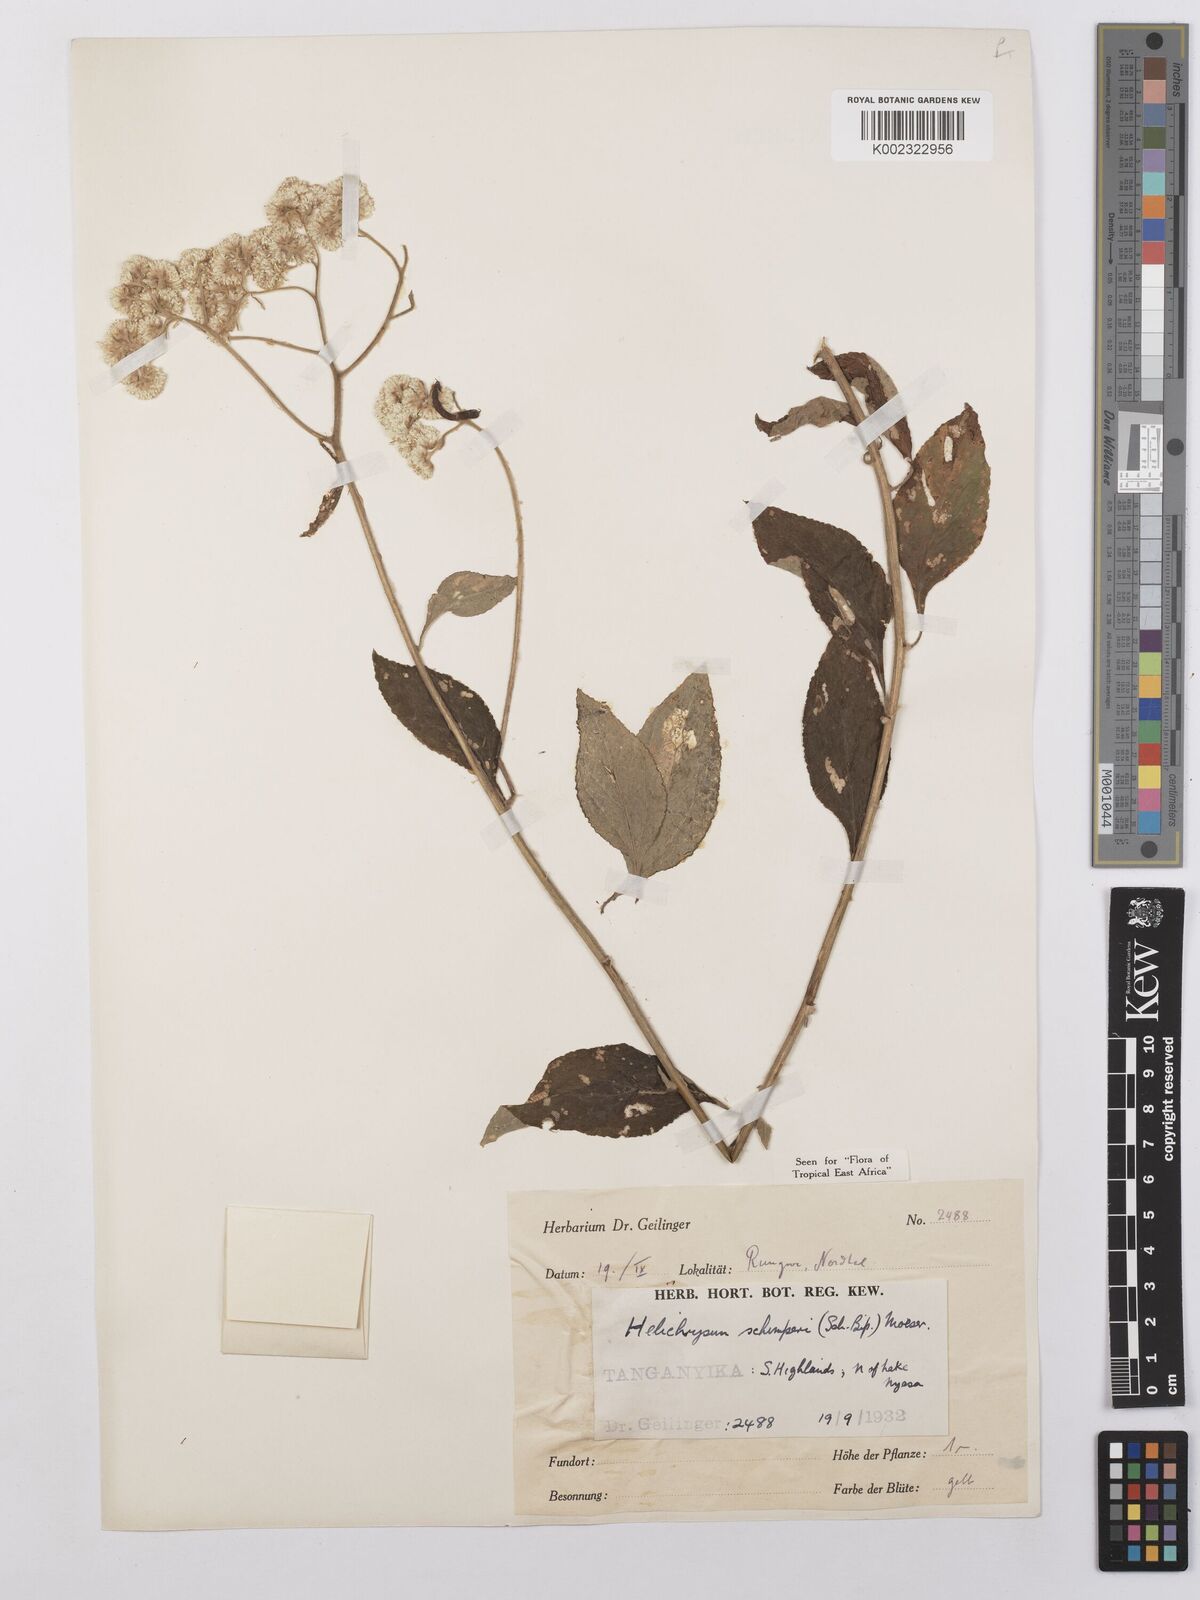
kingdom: Plantae
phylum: Tracheophyta
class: Magnoliopsida
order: Asterales
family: Asteraceae
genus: Helichrysum
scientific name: Helichrysum schimperi
